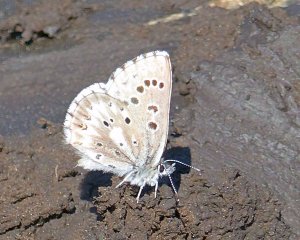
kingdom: Animalia
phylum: Arthropoda
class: Insecta
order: Lepidoptera
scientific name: Lepidoptera
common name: Butterflies
